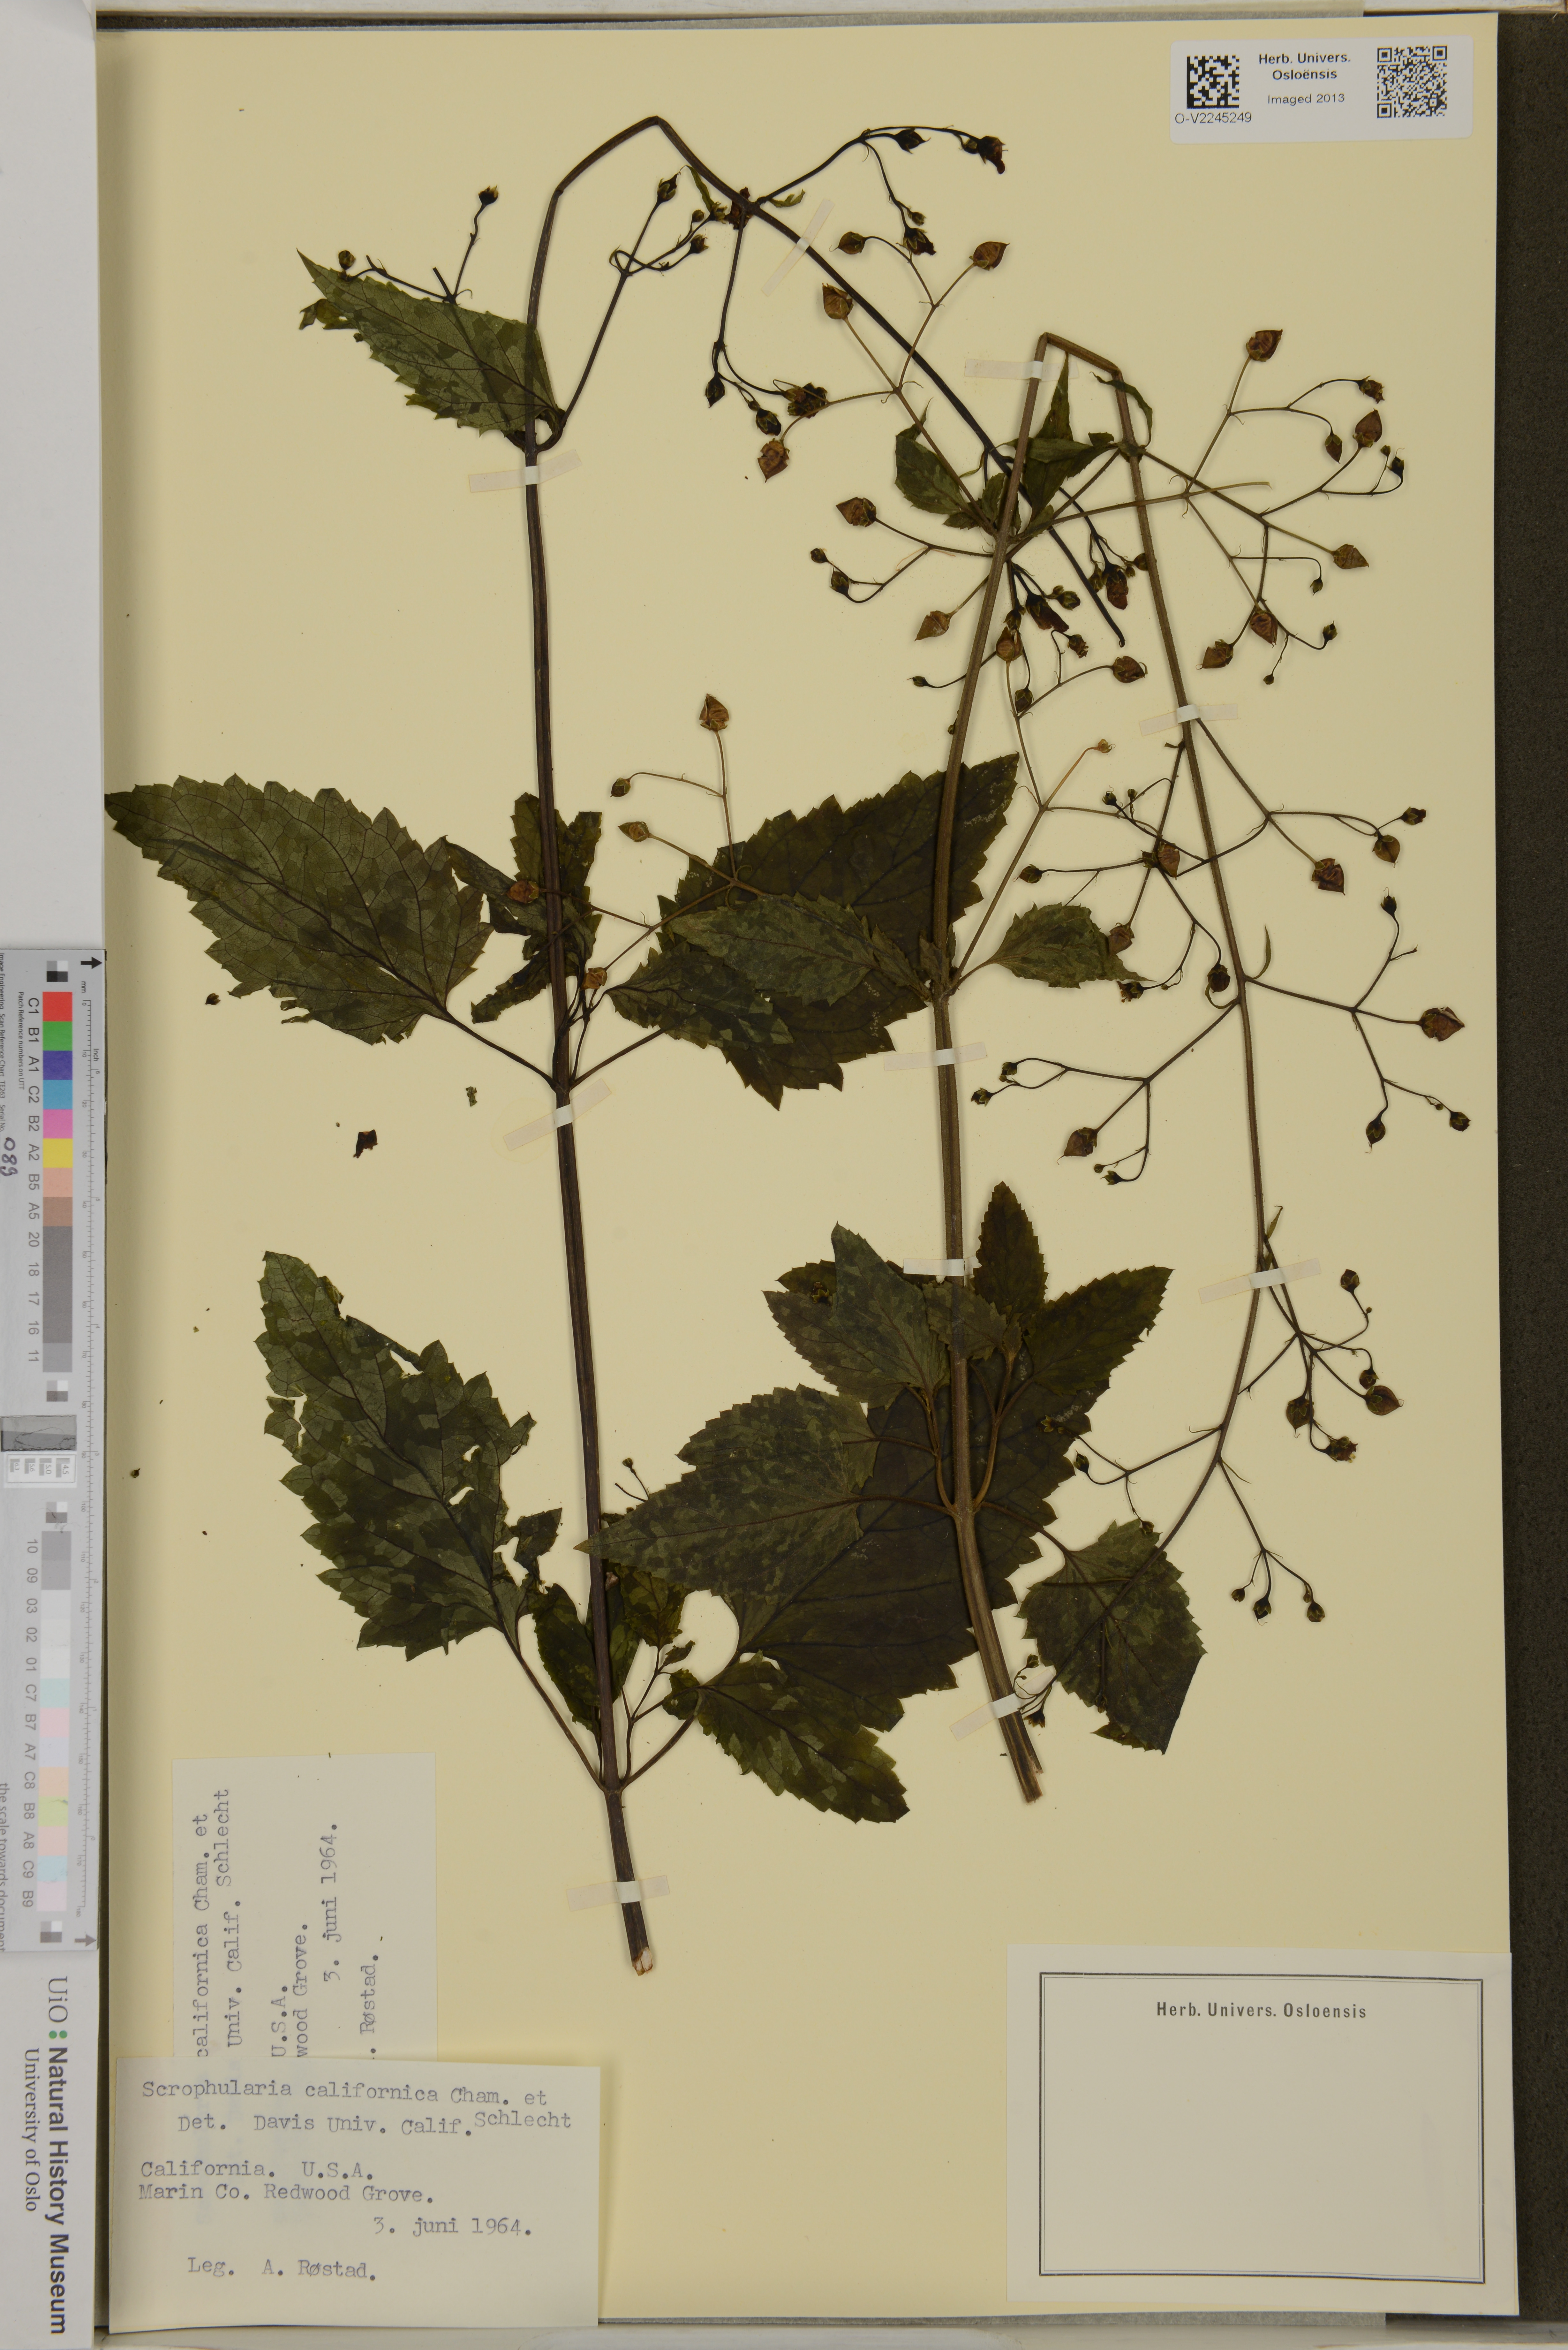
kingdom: Plantae
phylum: Tracheophyta
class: Magnoliopsida
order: Lamiales
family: Scrophulariaceae
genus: Scrophularia
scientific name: Scrophularia californica
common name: California figwort
